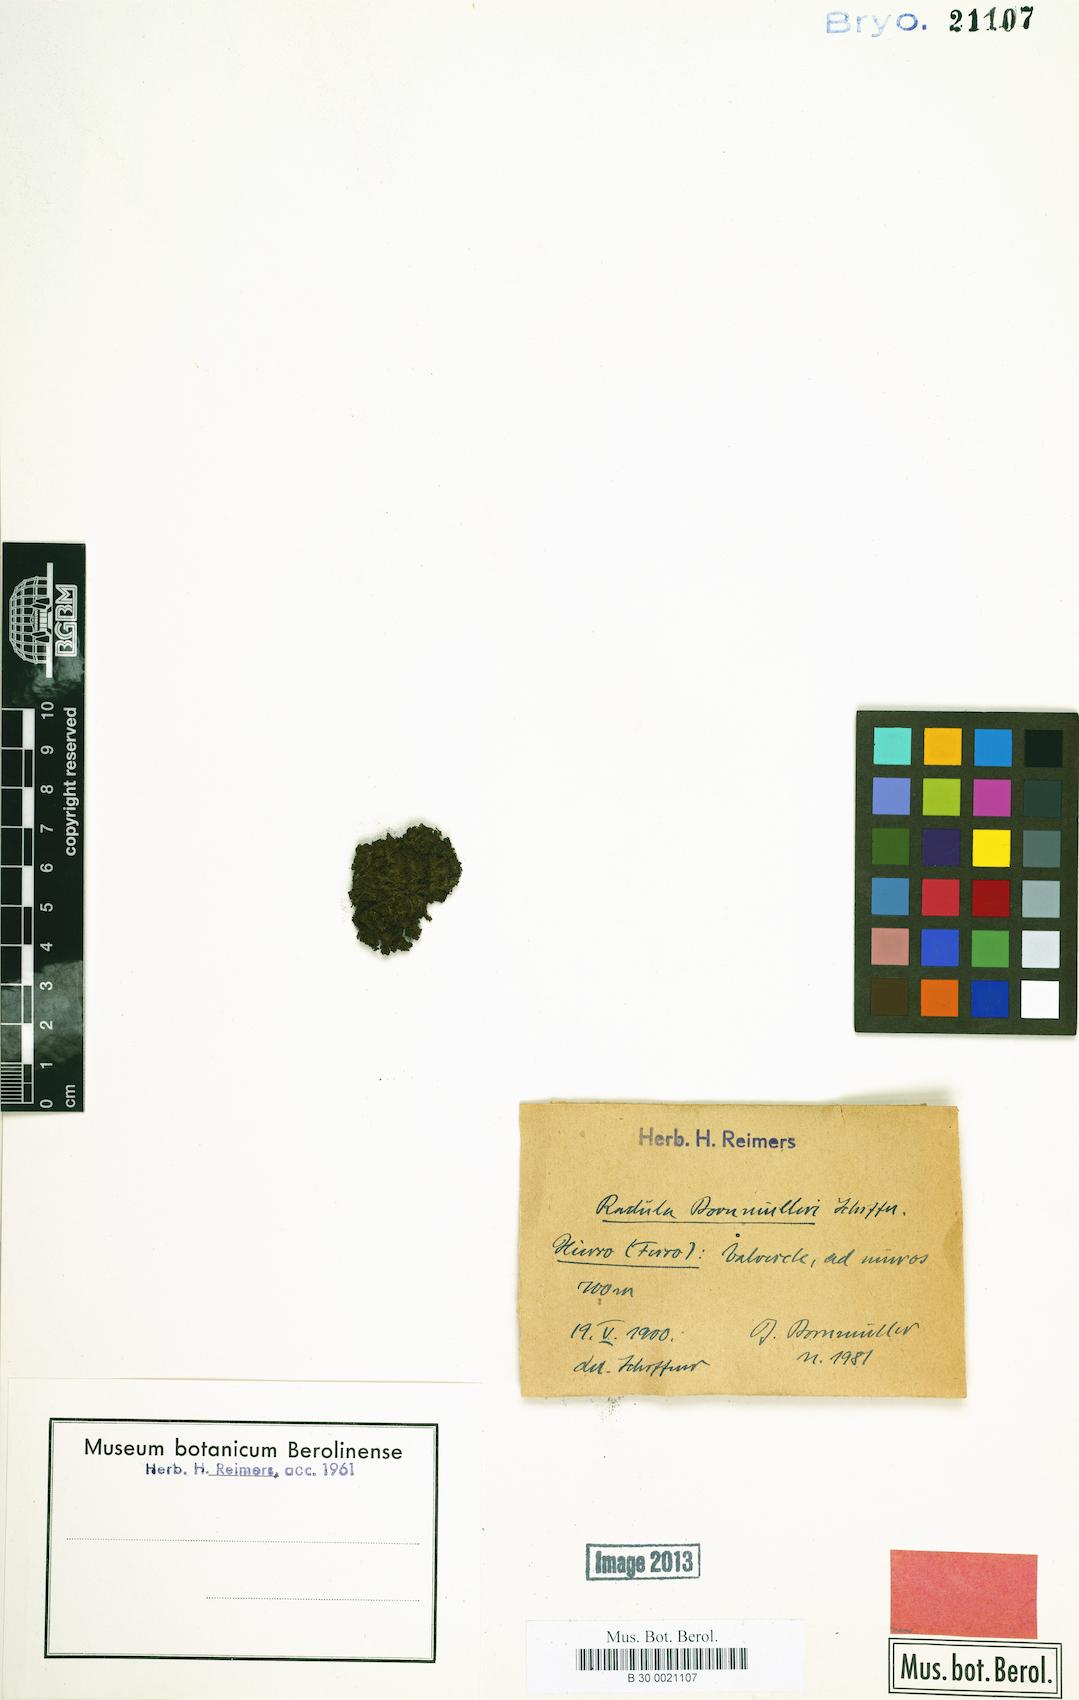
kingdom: Plantae
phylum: Marchantiophyta
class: Jungermanniopsida
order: Porellales
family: Radulaceae
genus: Radula
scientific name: Radula lindenbergiana
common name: Lindenberg's scalewort
